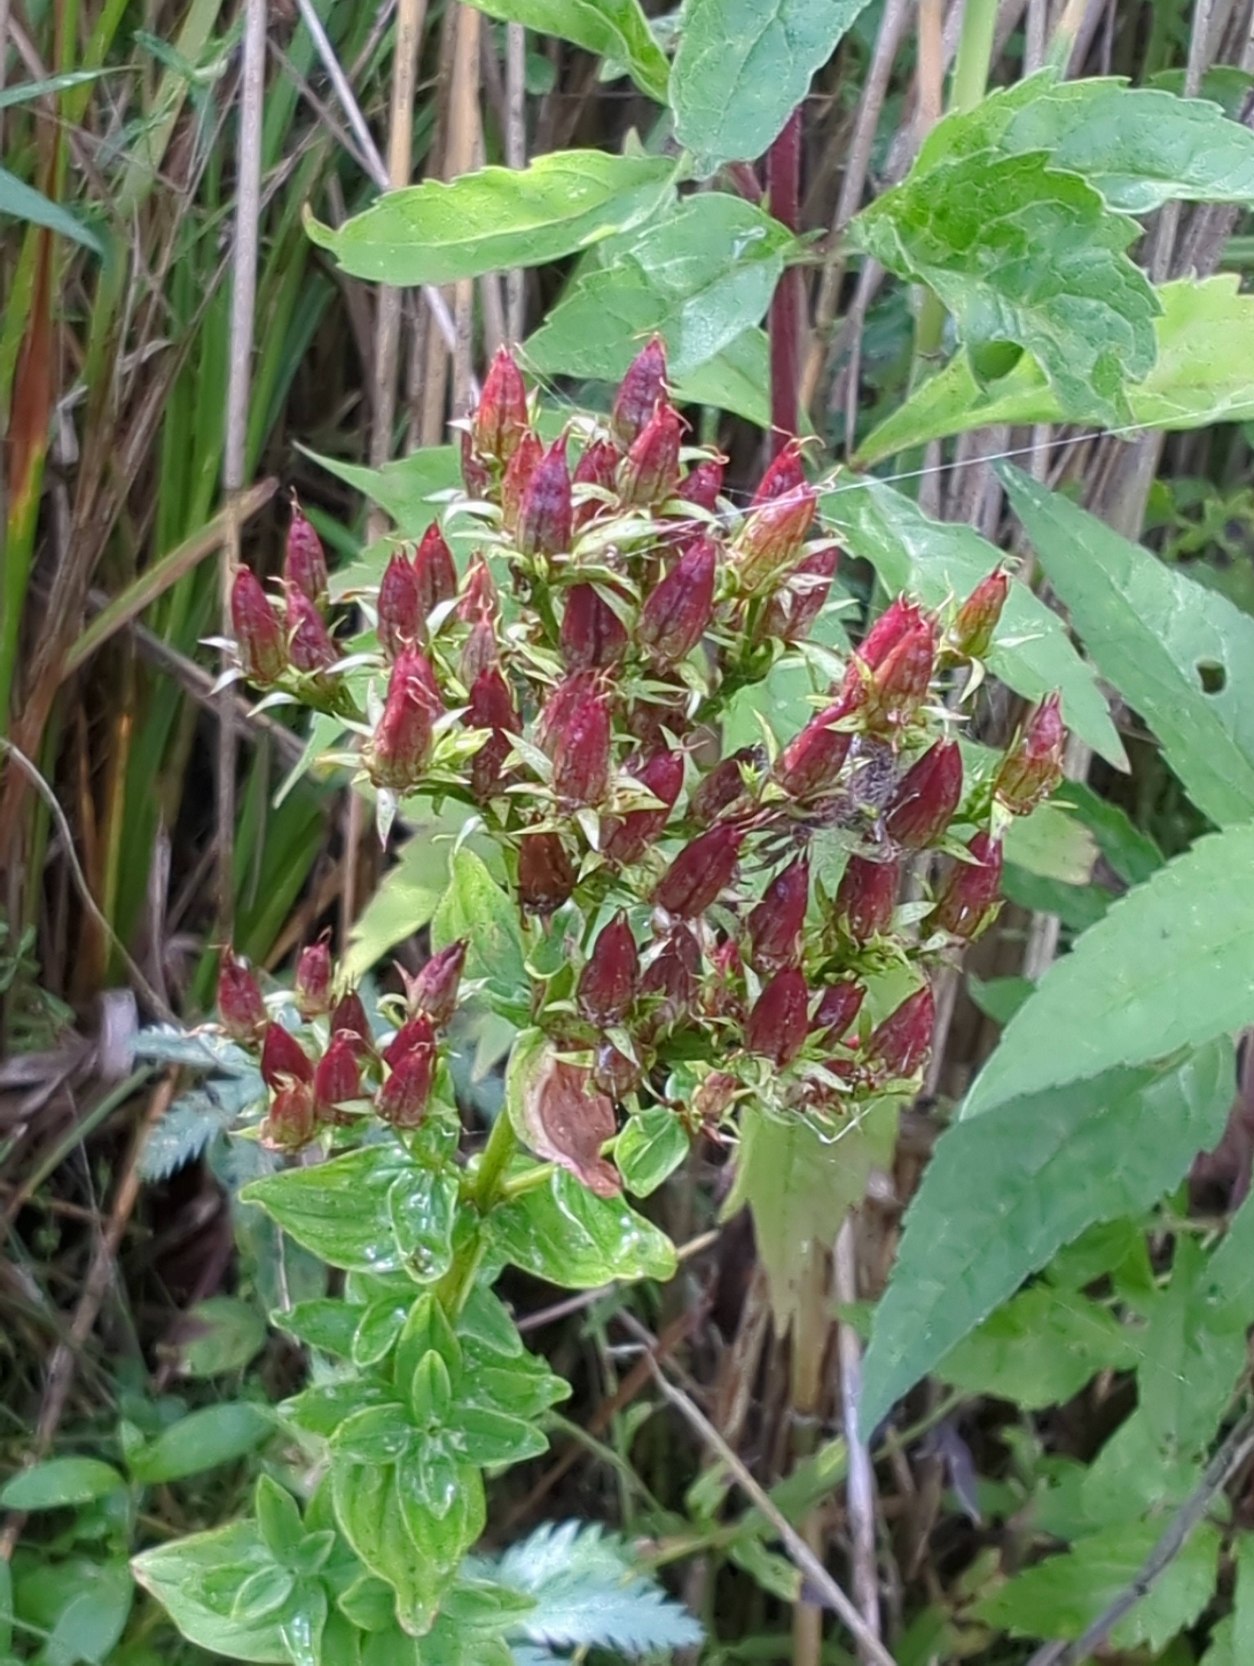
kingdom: Plantae
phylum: Tracheophyta
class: Magnoliopsida
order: Malpighiales
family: Hypericaceae
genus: Hypericum
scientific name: Hypericum tetrapterum
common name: Vinget perikon
